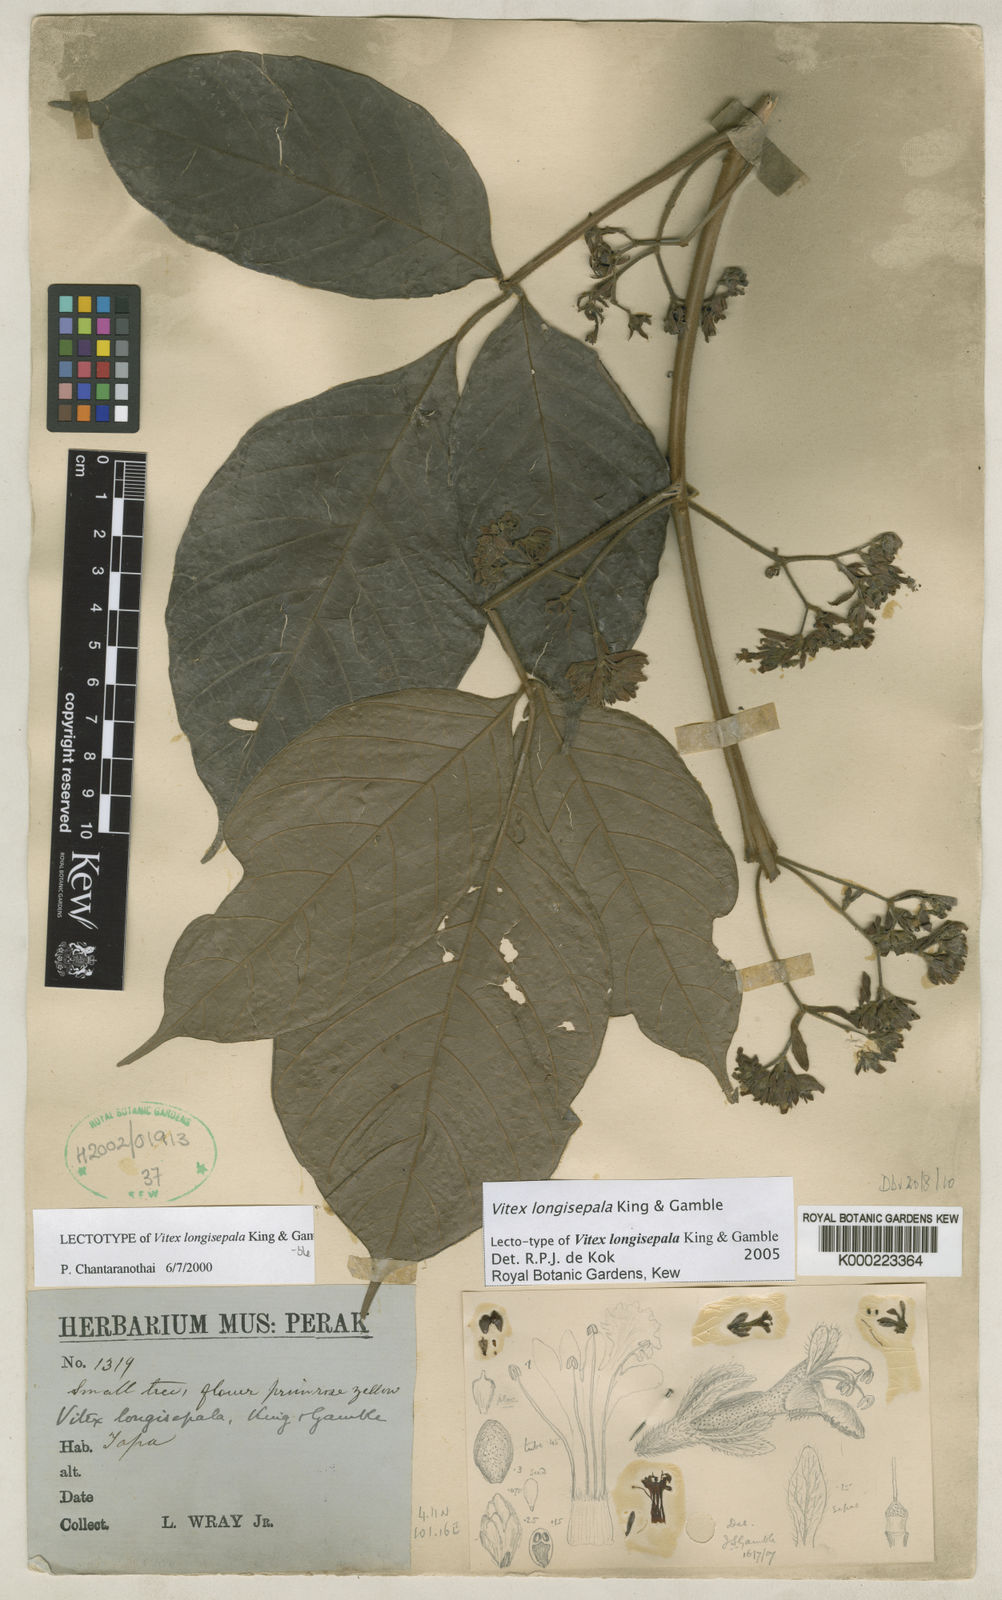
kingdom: Plantae
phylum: Tracheophyta
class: Magnoliopsida
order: Lamiales
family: Lamiaceae
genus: Vitex
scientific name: Vitex longisepala
